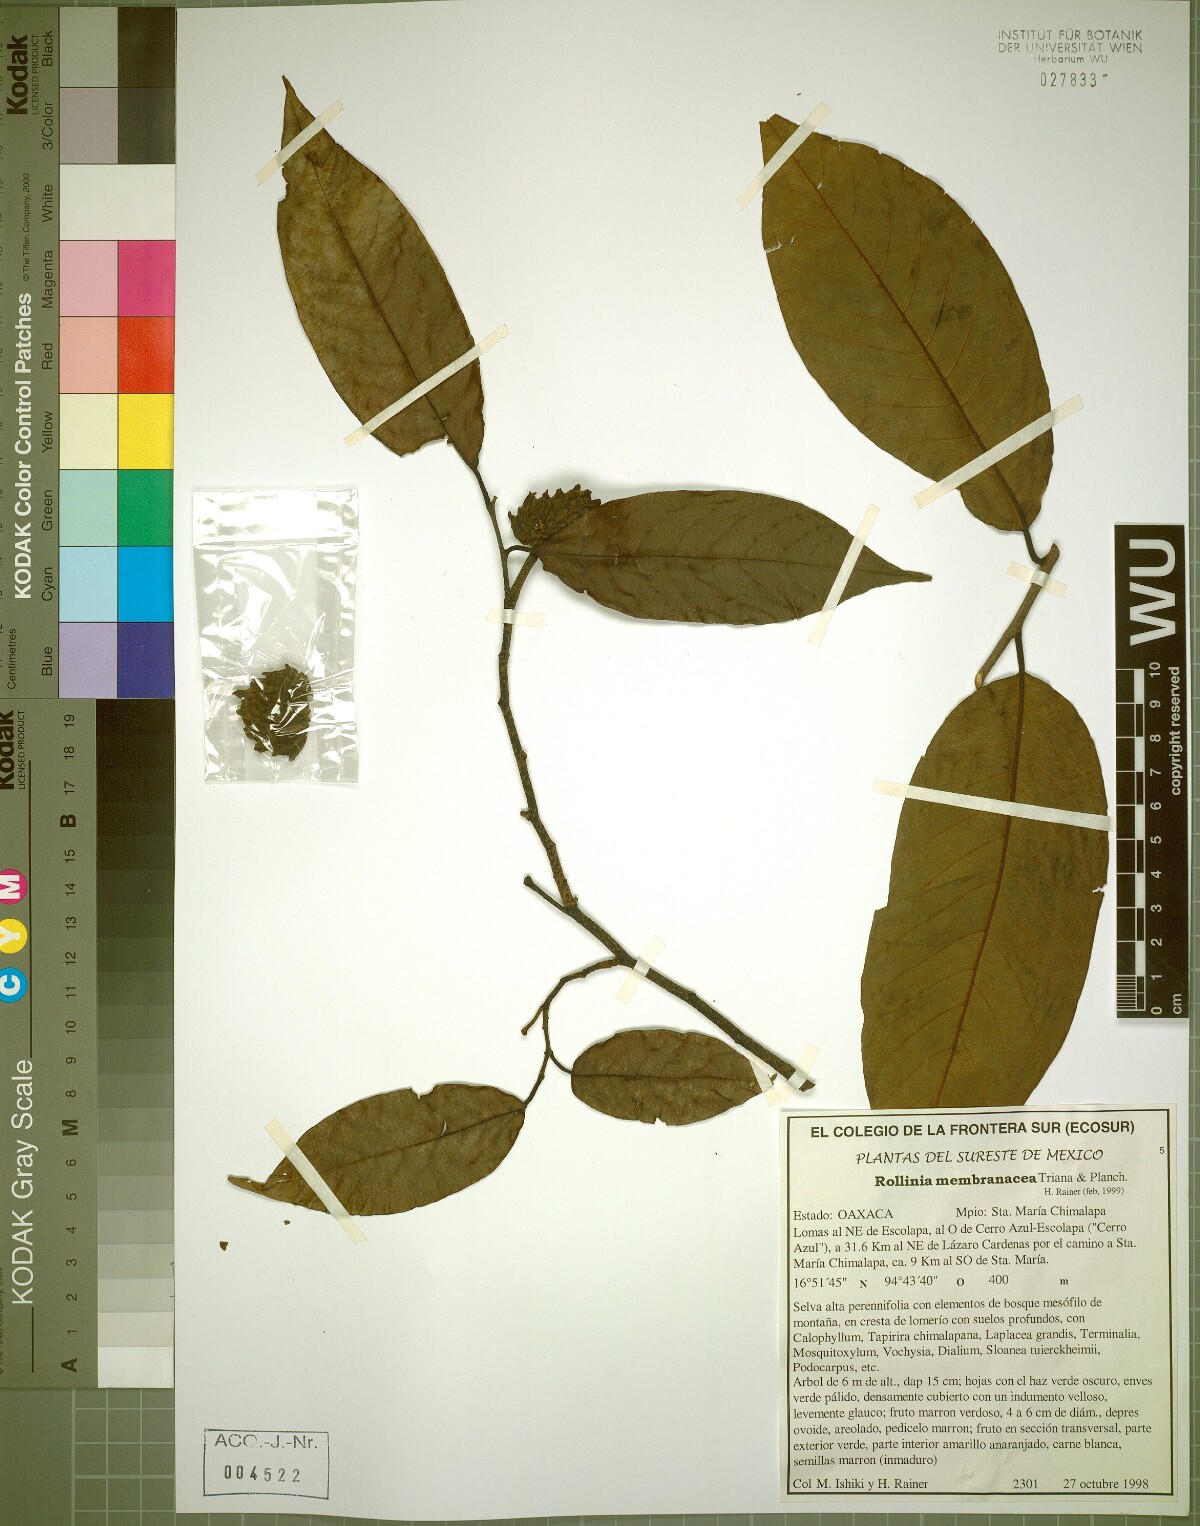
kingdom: Plantae
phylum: Tracheophyta
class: Magnoliopsida
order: Magnoliales
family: Annonaceae
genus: Annona
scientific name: Annona rensoniana
